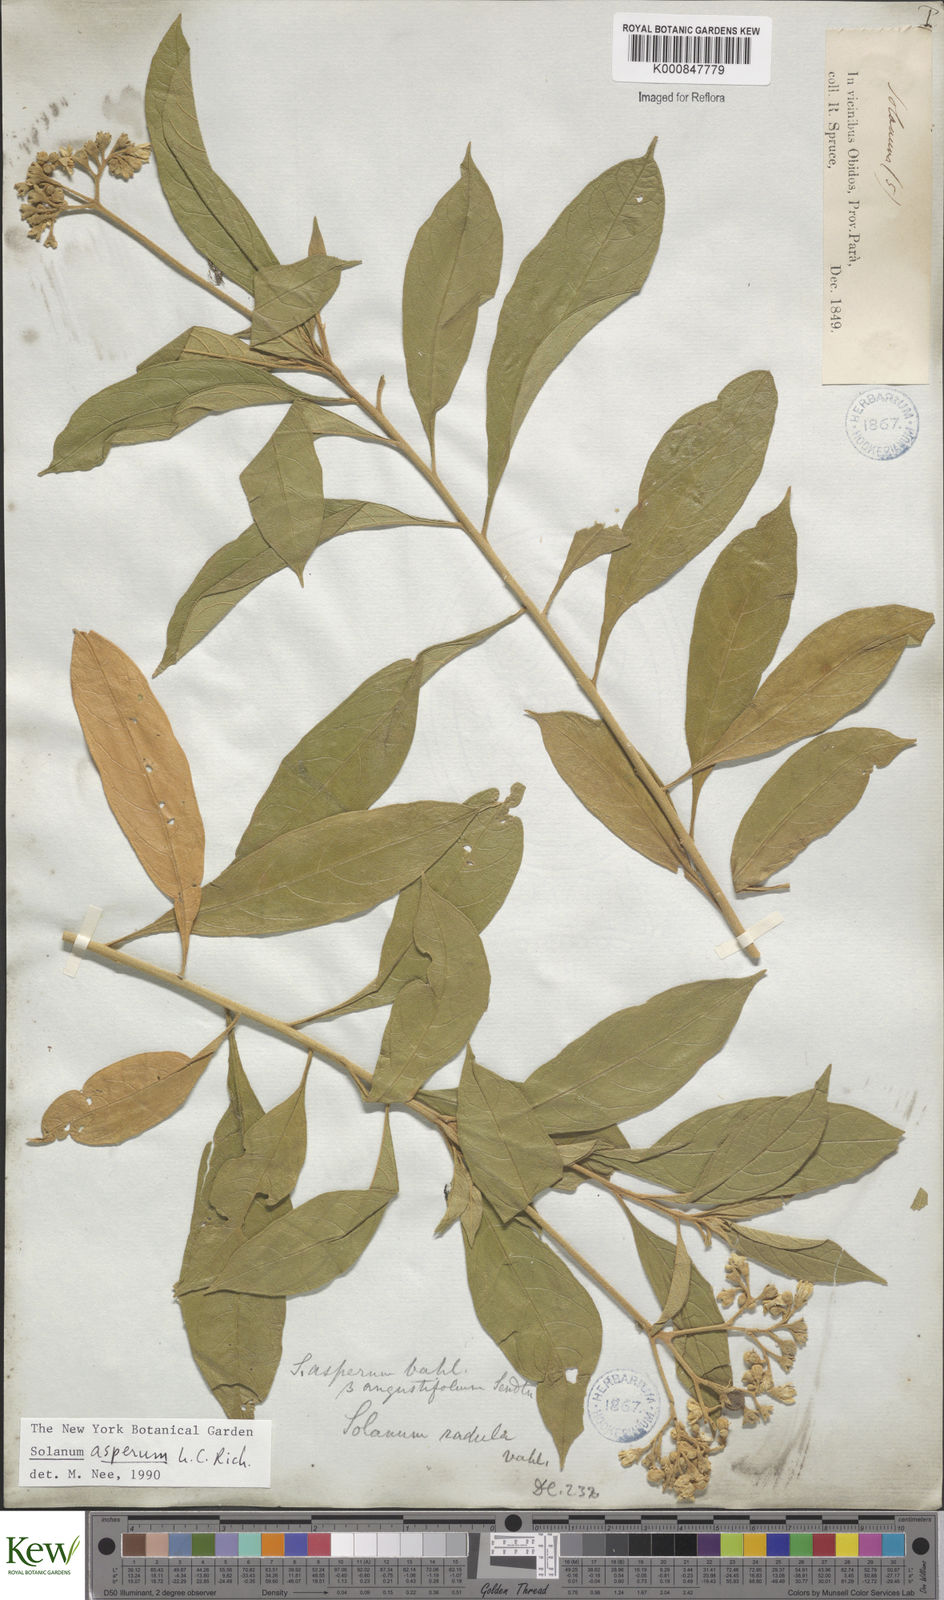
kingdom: Plantae
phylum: Tracheophyta
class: Magnoliopsida
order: Solanales
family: Solanaceae
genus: Solanum
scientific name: Solanum asperum
